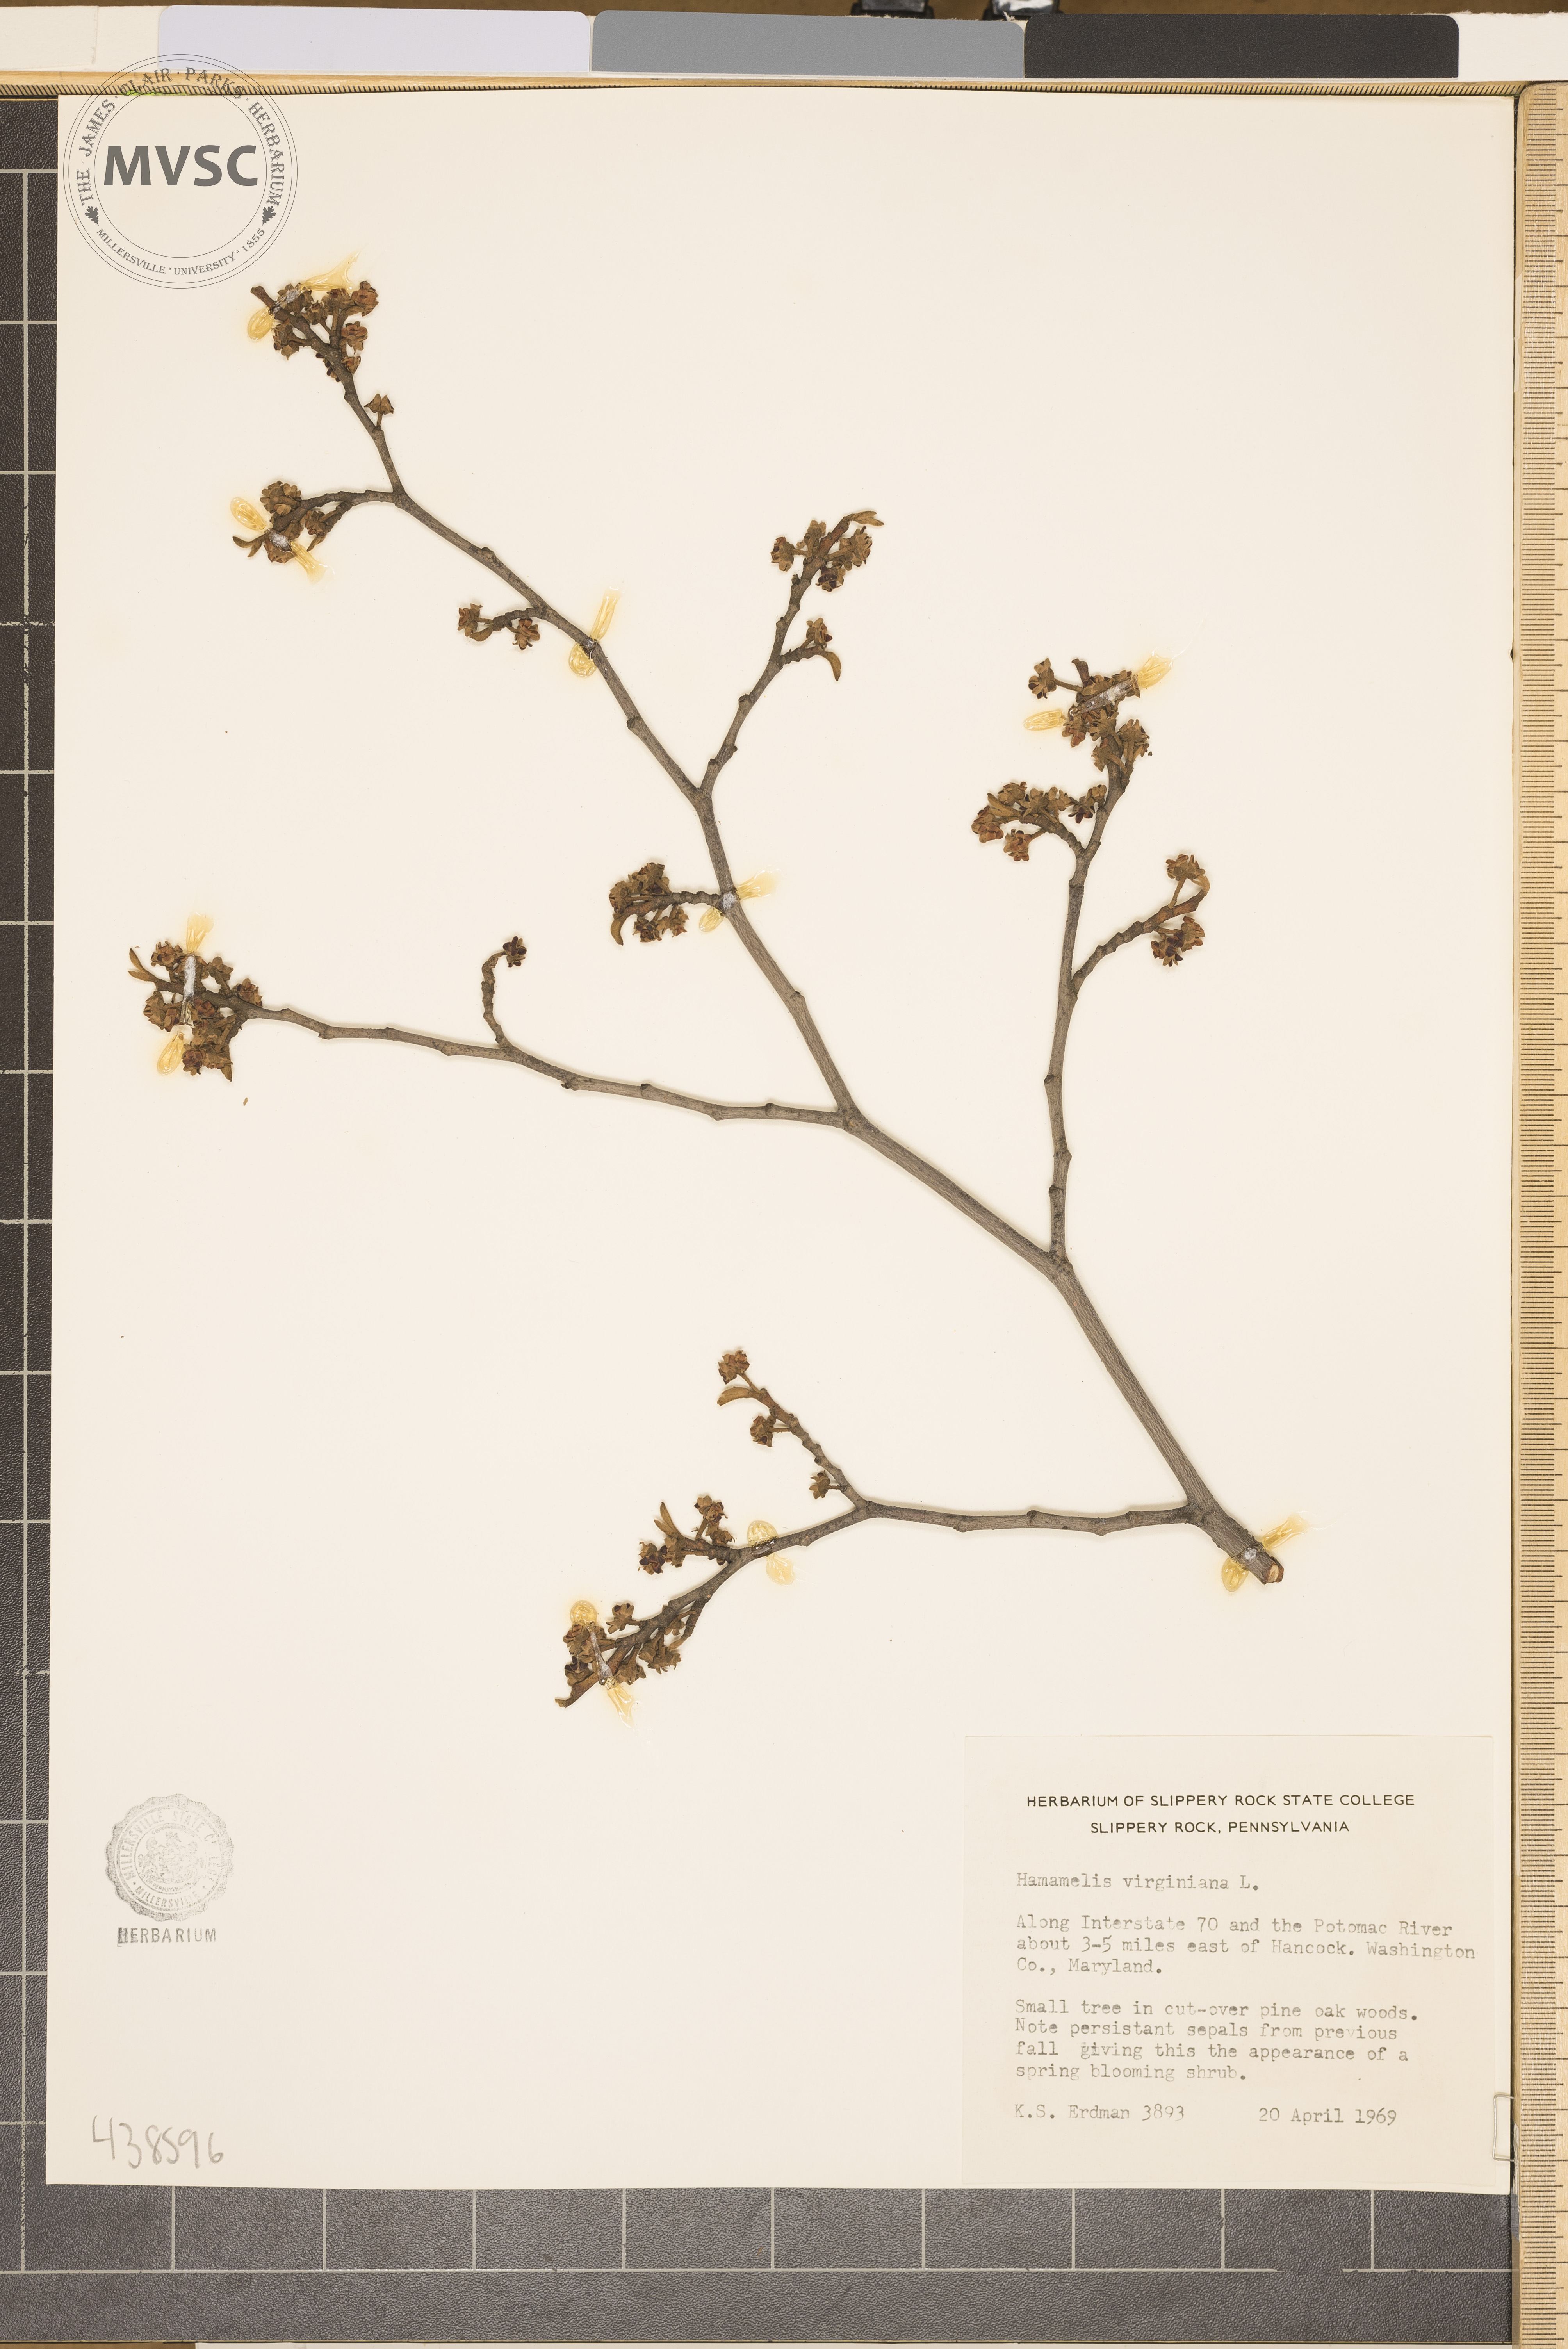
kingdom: Plantae
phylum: Tracheophyta
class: Magnoliopsida
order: Saxifragales
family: Hamamelidaceae
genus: Hamamelis
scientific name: Hamamelis virginiana
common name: Witch-hazel
